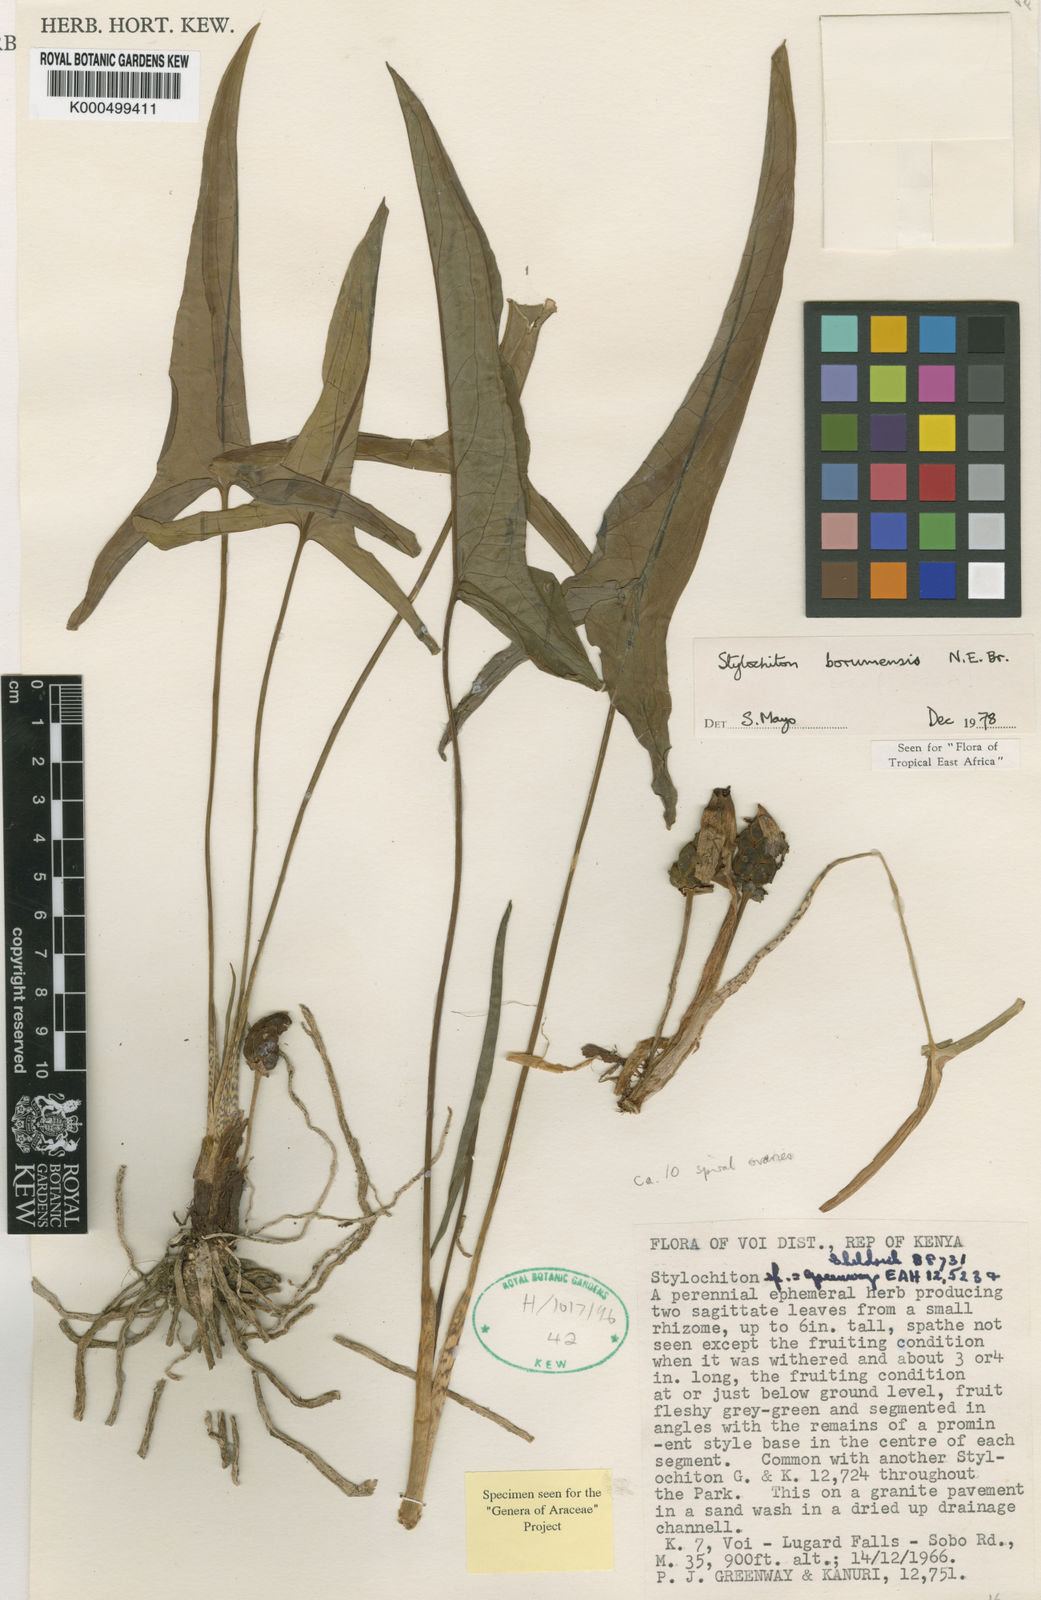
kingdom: Plantae
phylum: Tracheophyta
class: Liliopsida
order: Alismatales
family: Araceae
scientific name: Araceae
